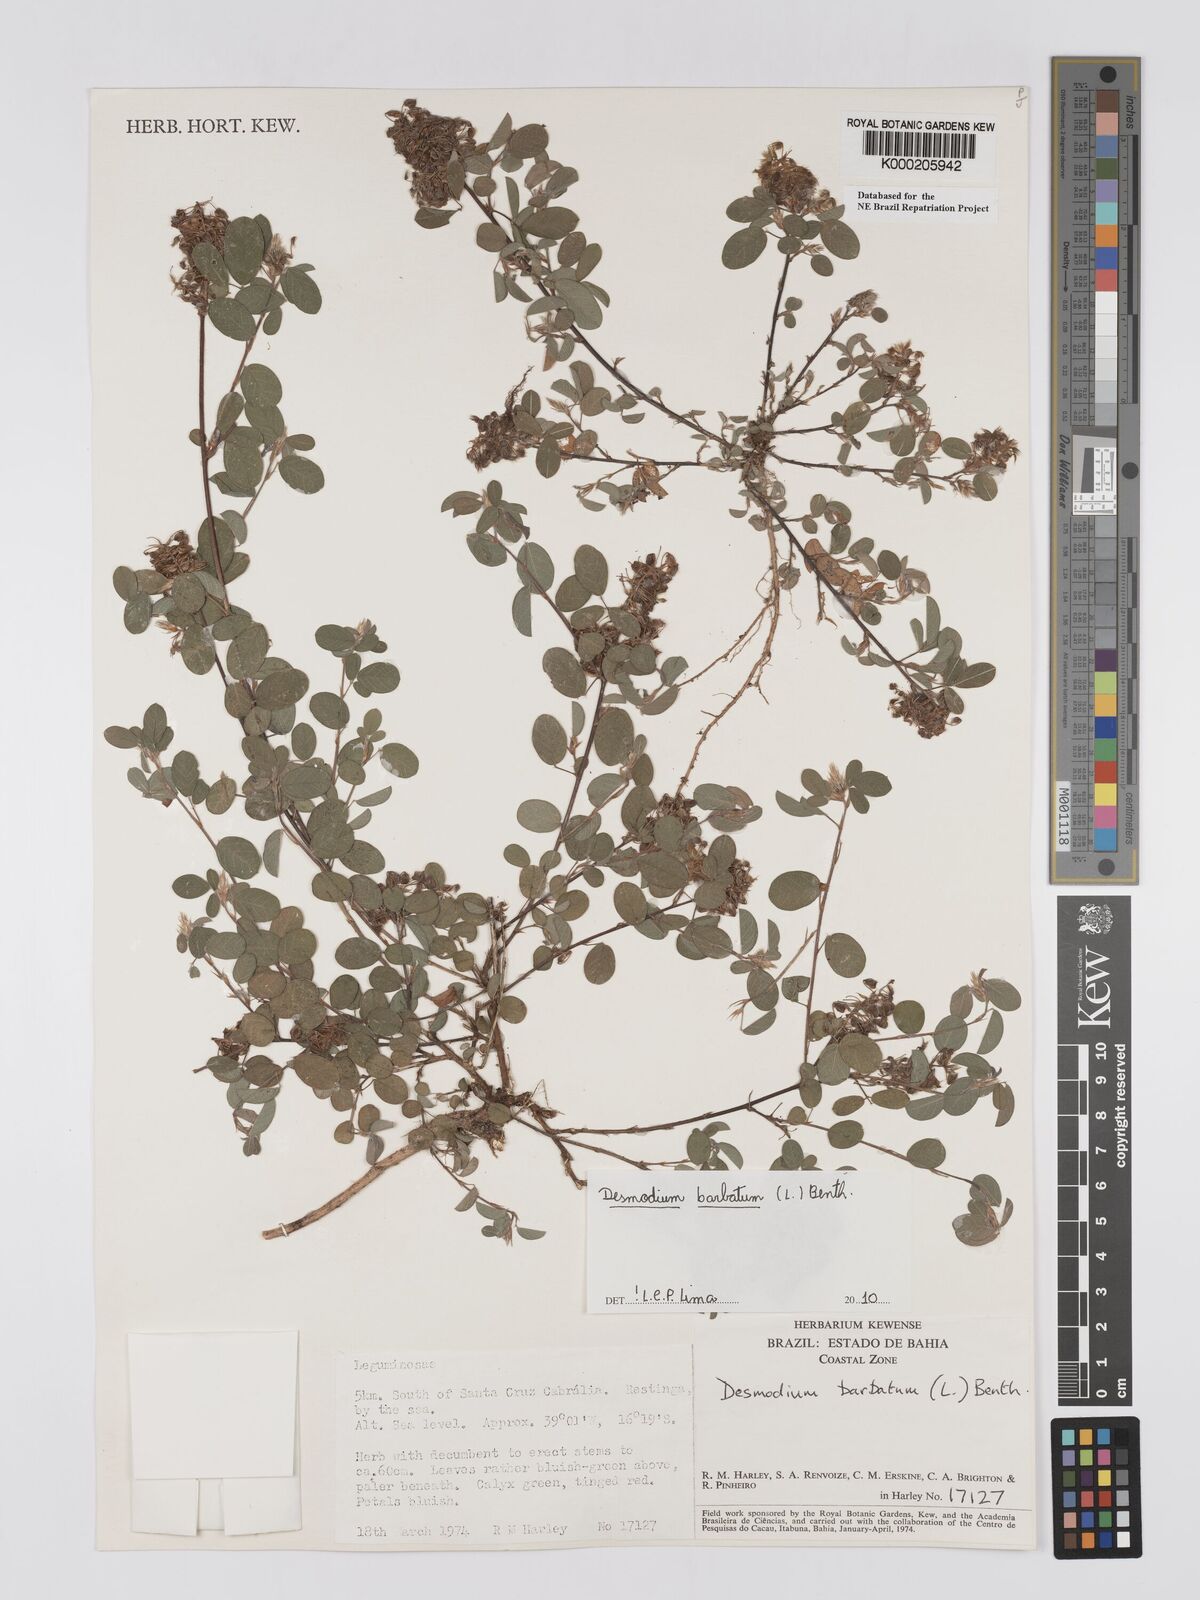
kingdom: Plantae
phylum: Tracheophyta
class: Magnoliopsida
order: Fabales
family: Fabaceae
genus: Grona
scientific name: Grona barbata
